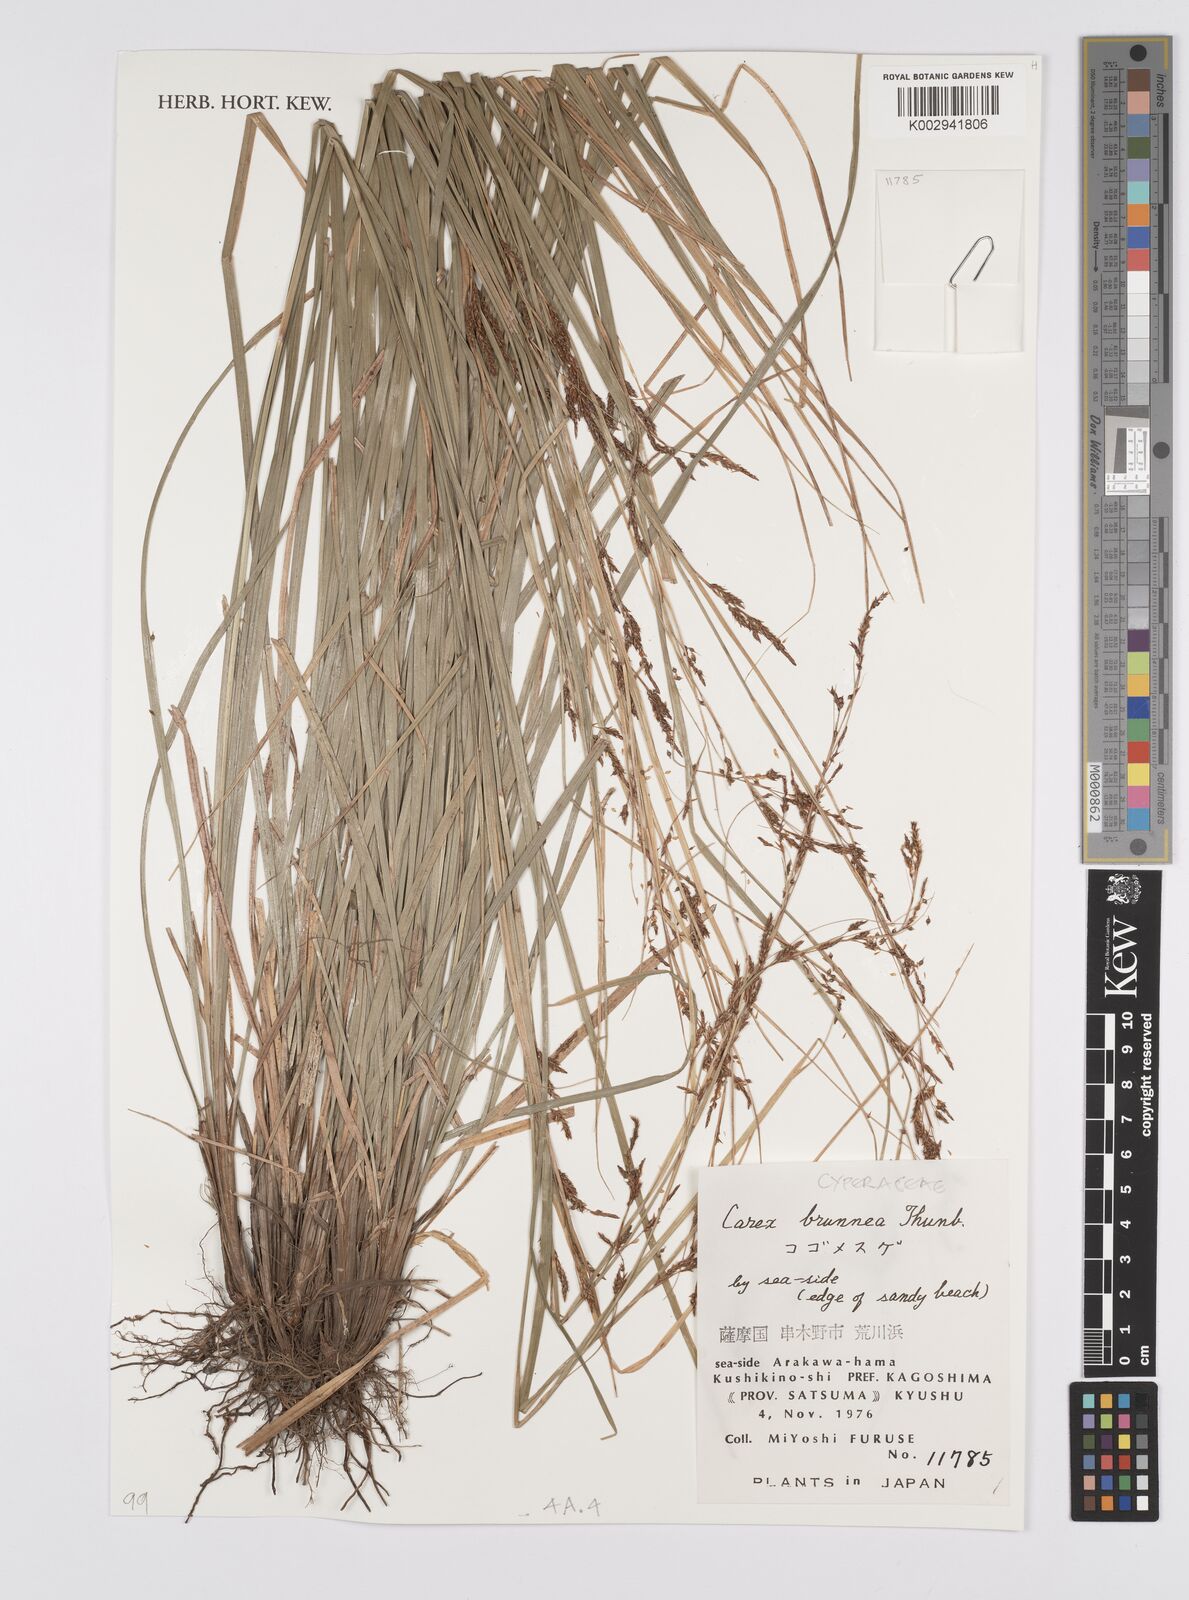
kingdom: Plantae
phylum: Tracheophyta
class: Liliopsida
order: Poales
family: Cyperaceae
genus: Carex
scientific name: Carex brunnea
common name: Greater brown sedge
